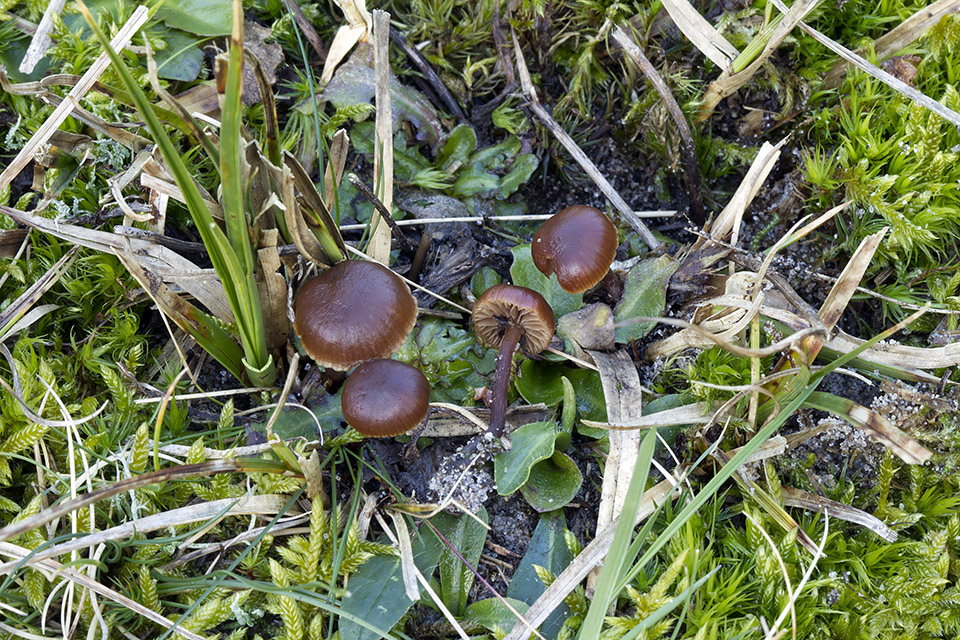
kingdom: Fungi
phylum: Basidiomycota
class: Agaricomycetes
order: Agaricales
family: Strophariaceae
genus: Deconica
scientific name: Deconica montana
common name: rødbrun stråhat
